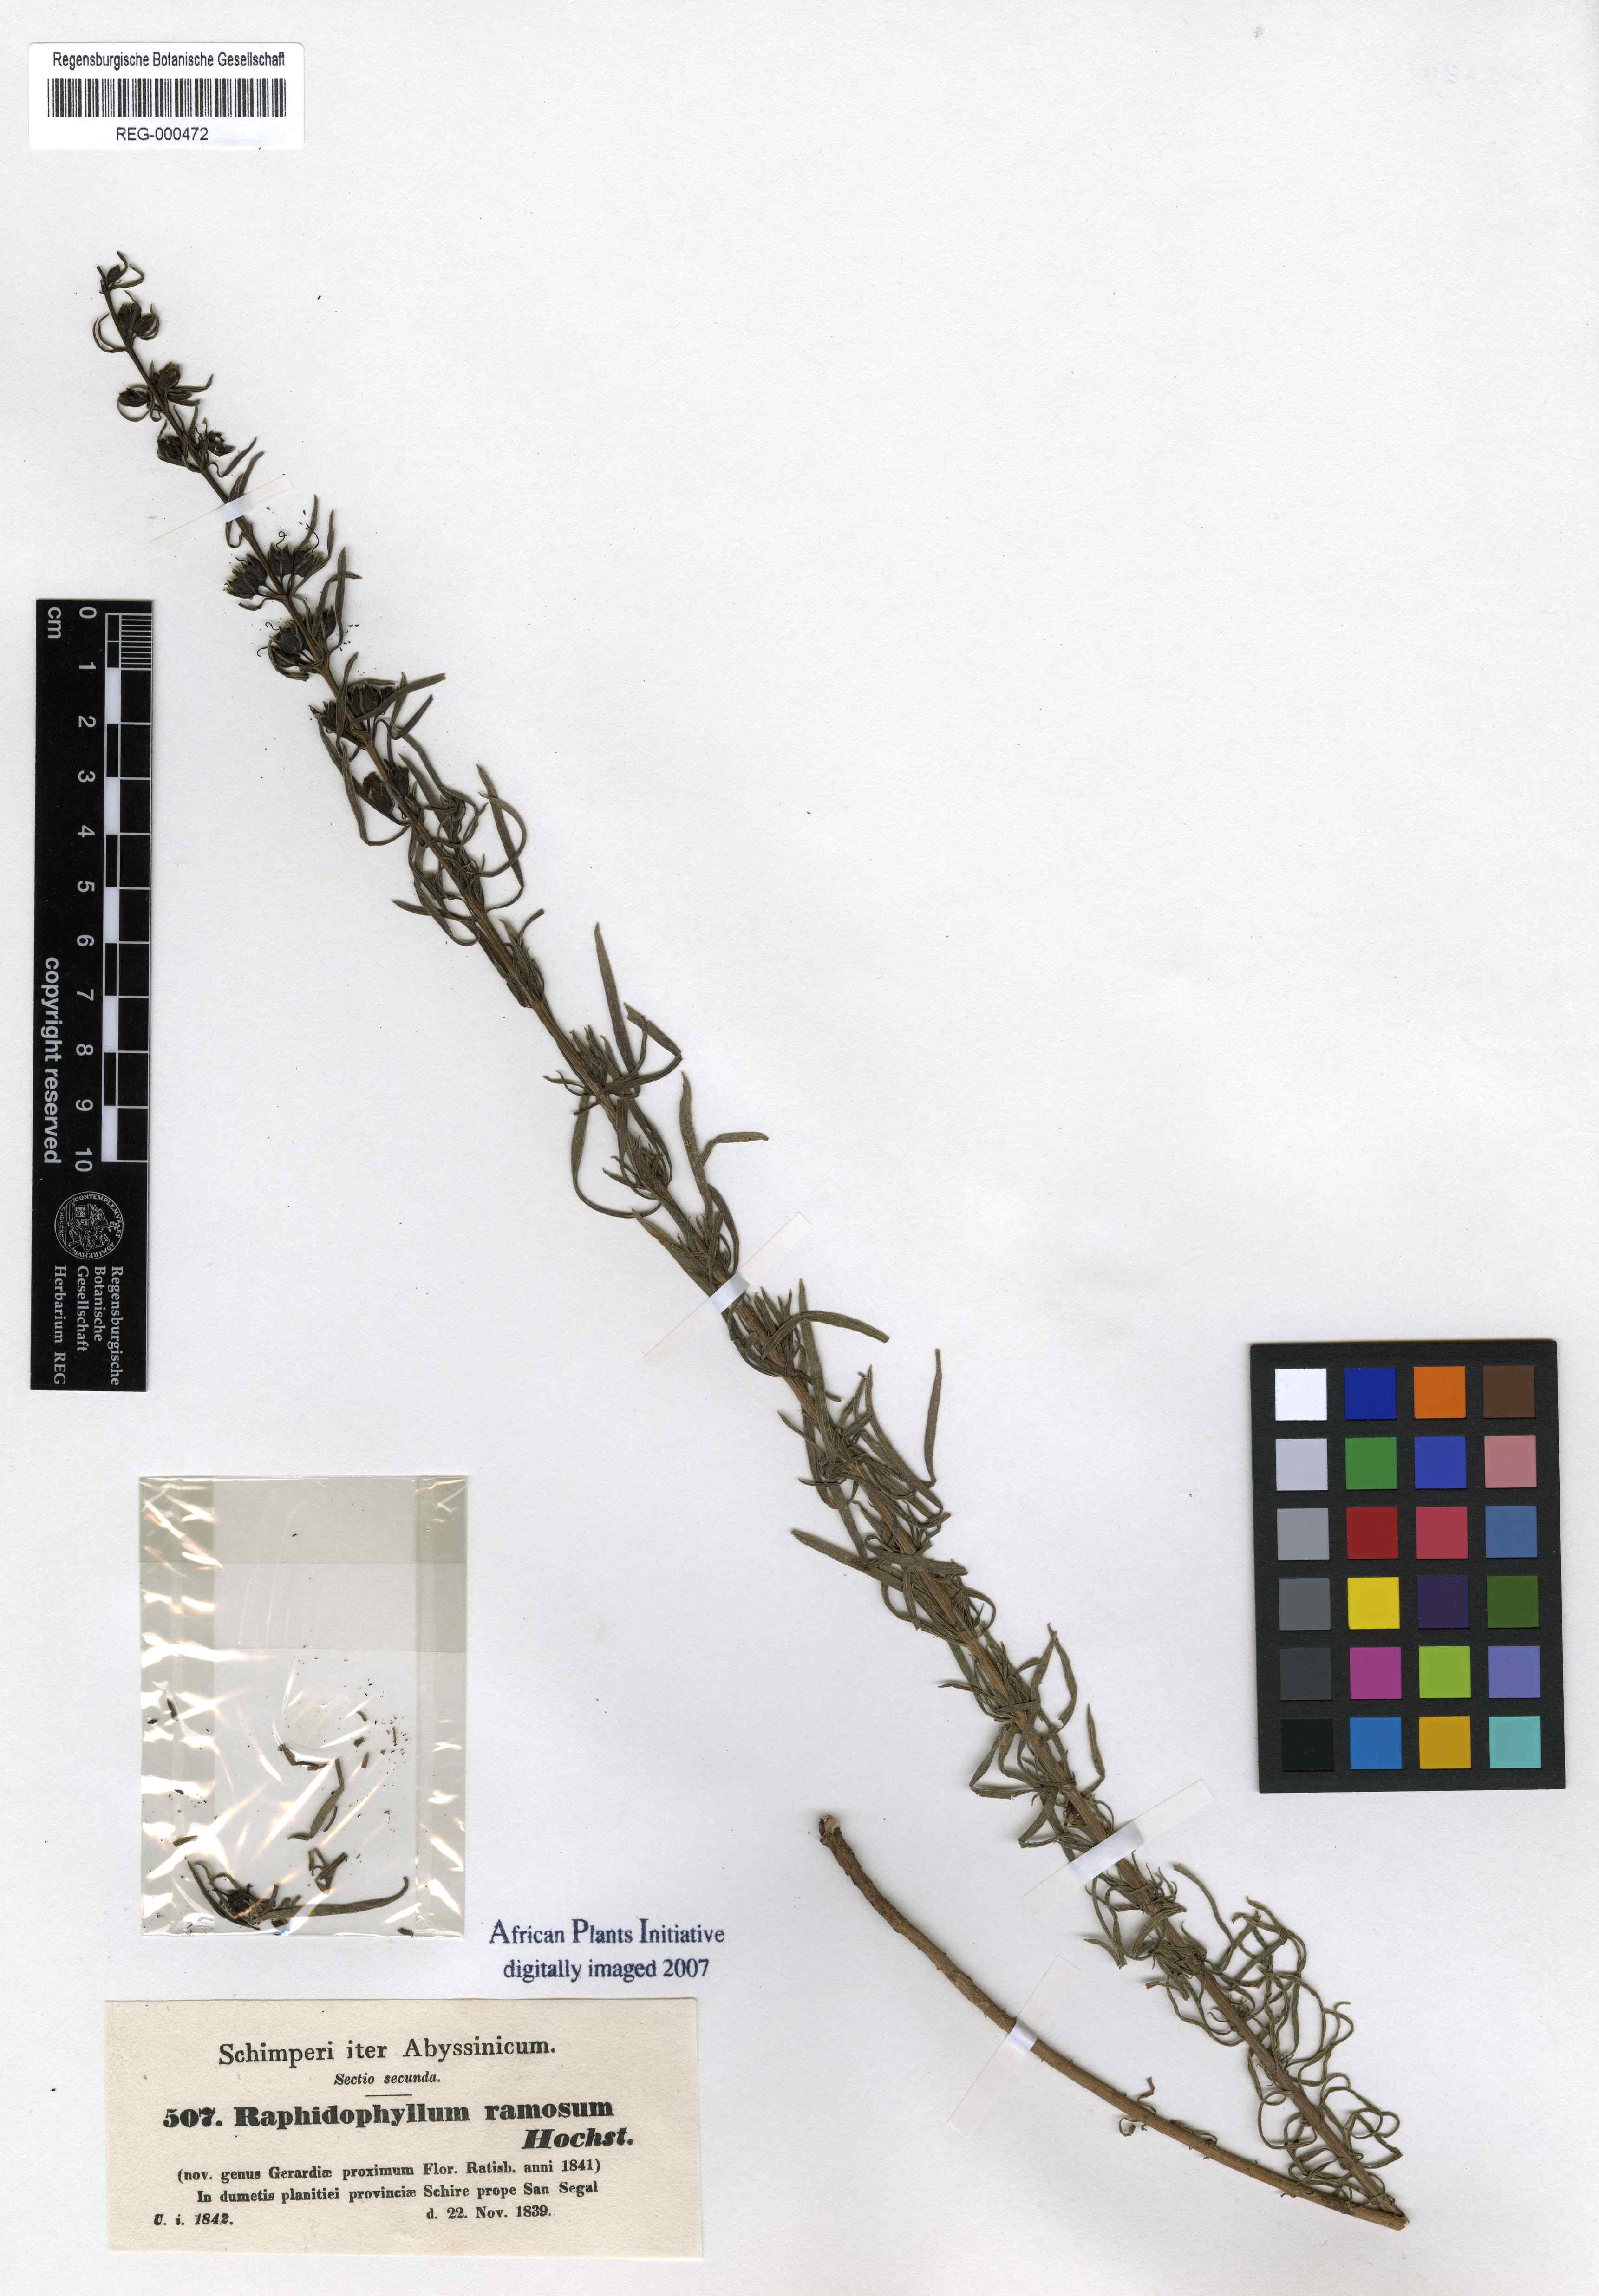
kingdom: Plantae
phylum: Tracheophyta
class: Magnoliopsida
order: Lamiales
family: Orobanchaceae
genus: Sopubia
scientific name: Sopubia ramosa
